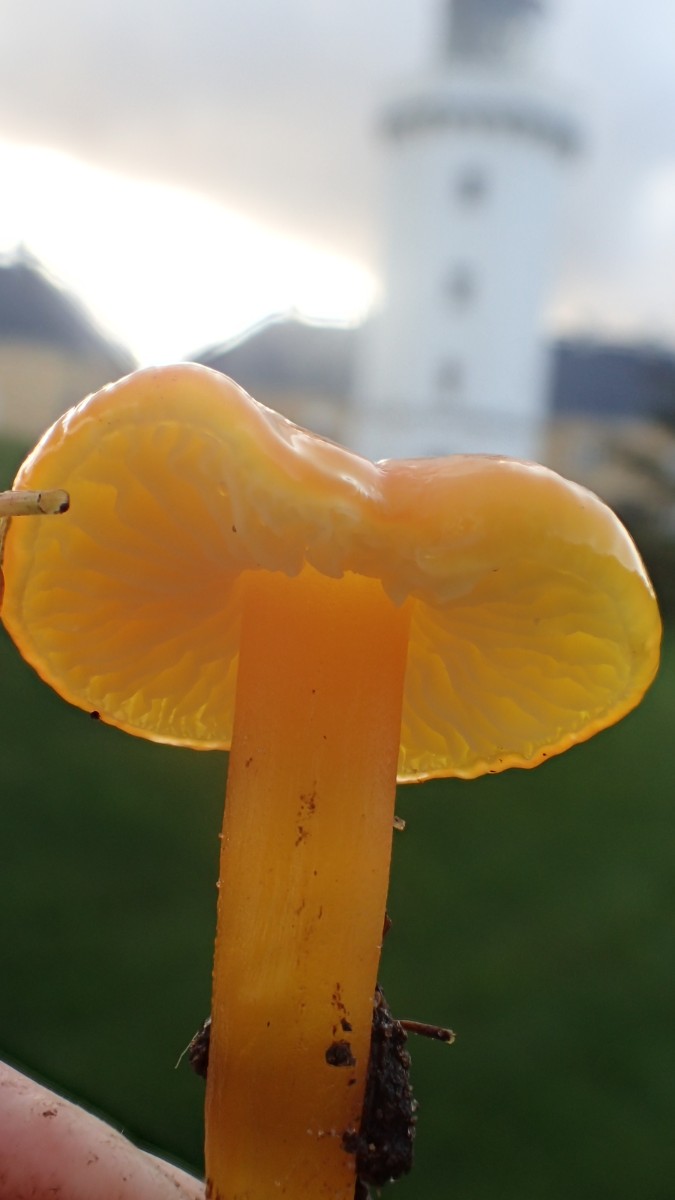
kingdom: Fungi
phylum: Basidiomycota
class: Agaricomycetes
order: Agaricales
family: Hygrophoraceae
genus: Hygrocybe
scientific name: Hygrocybe chlorophana
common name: gul vokshat
